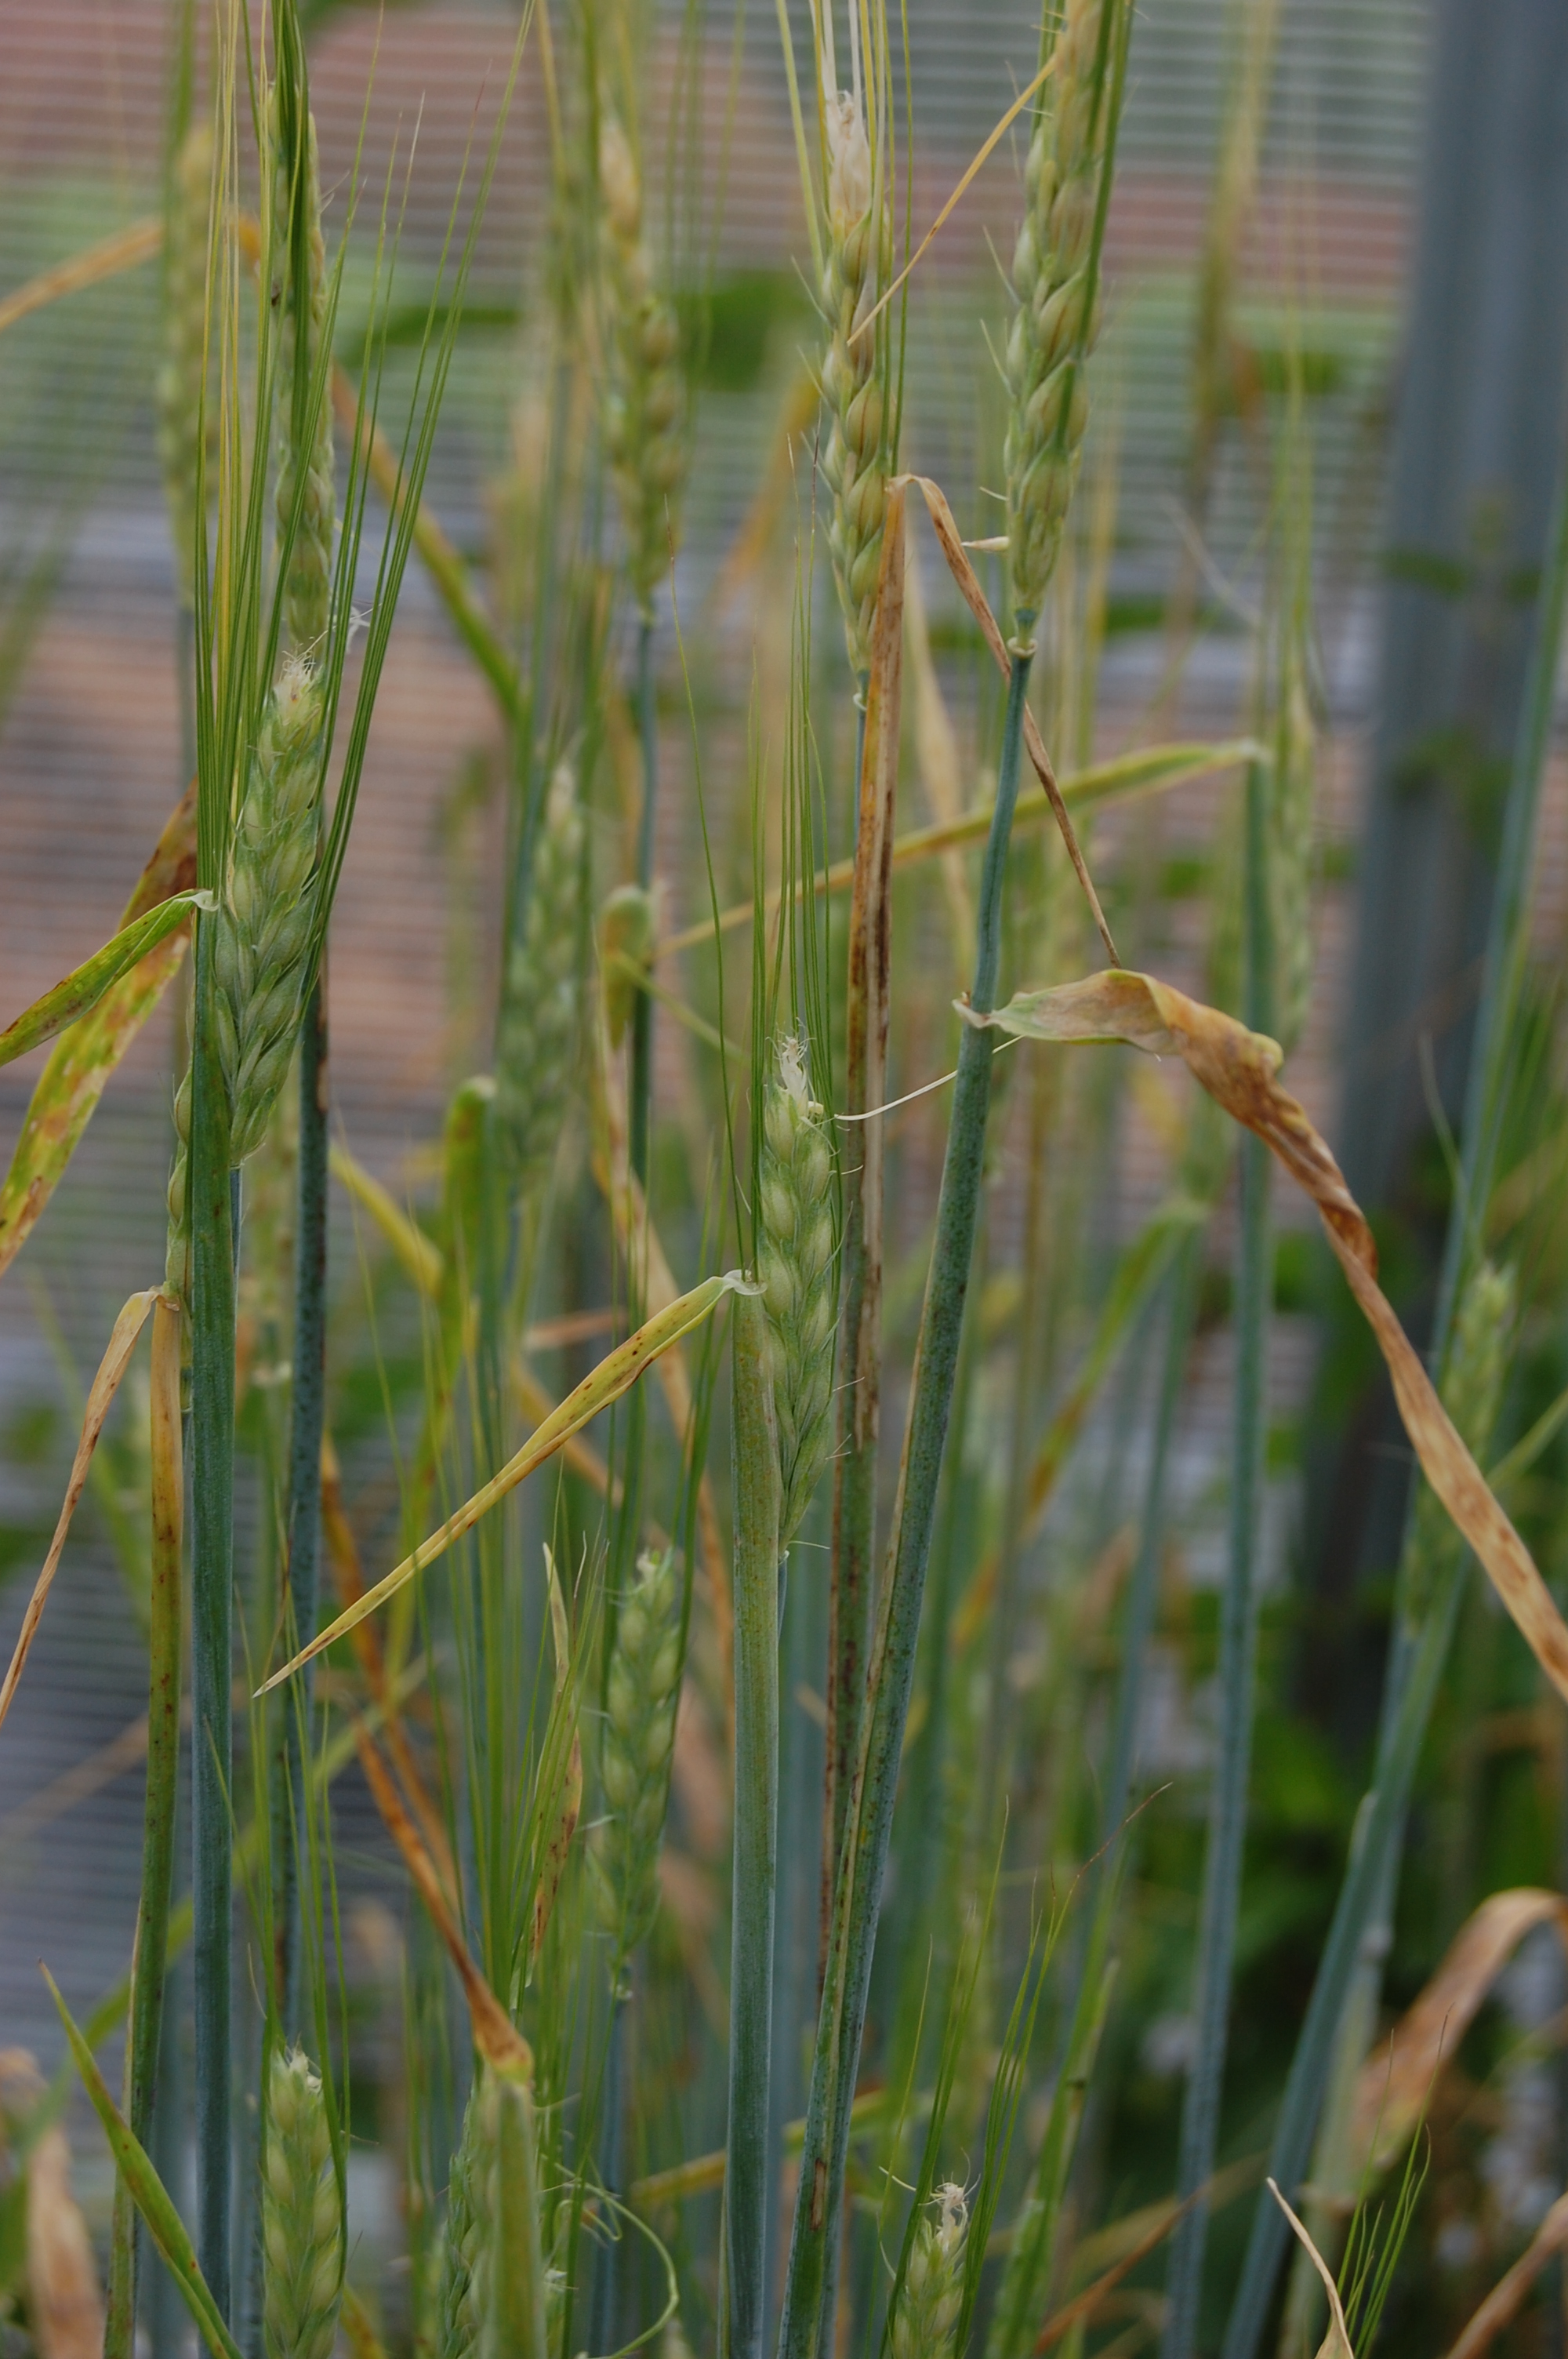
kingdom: Plantae
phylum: Tracheophyta
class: Liliopsida
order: Poales
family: Poaceae
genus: Hordeum
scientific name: Hordeum vulgare
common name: Common barley
